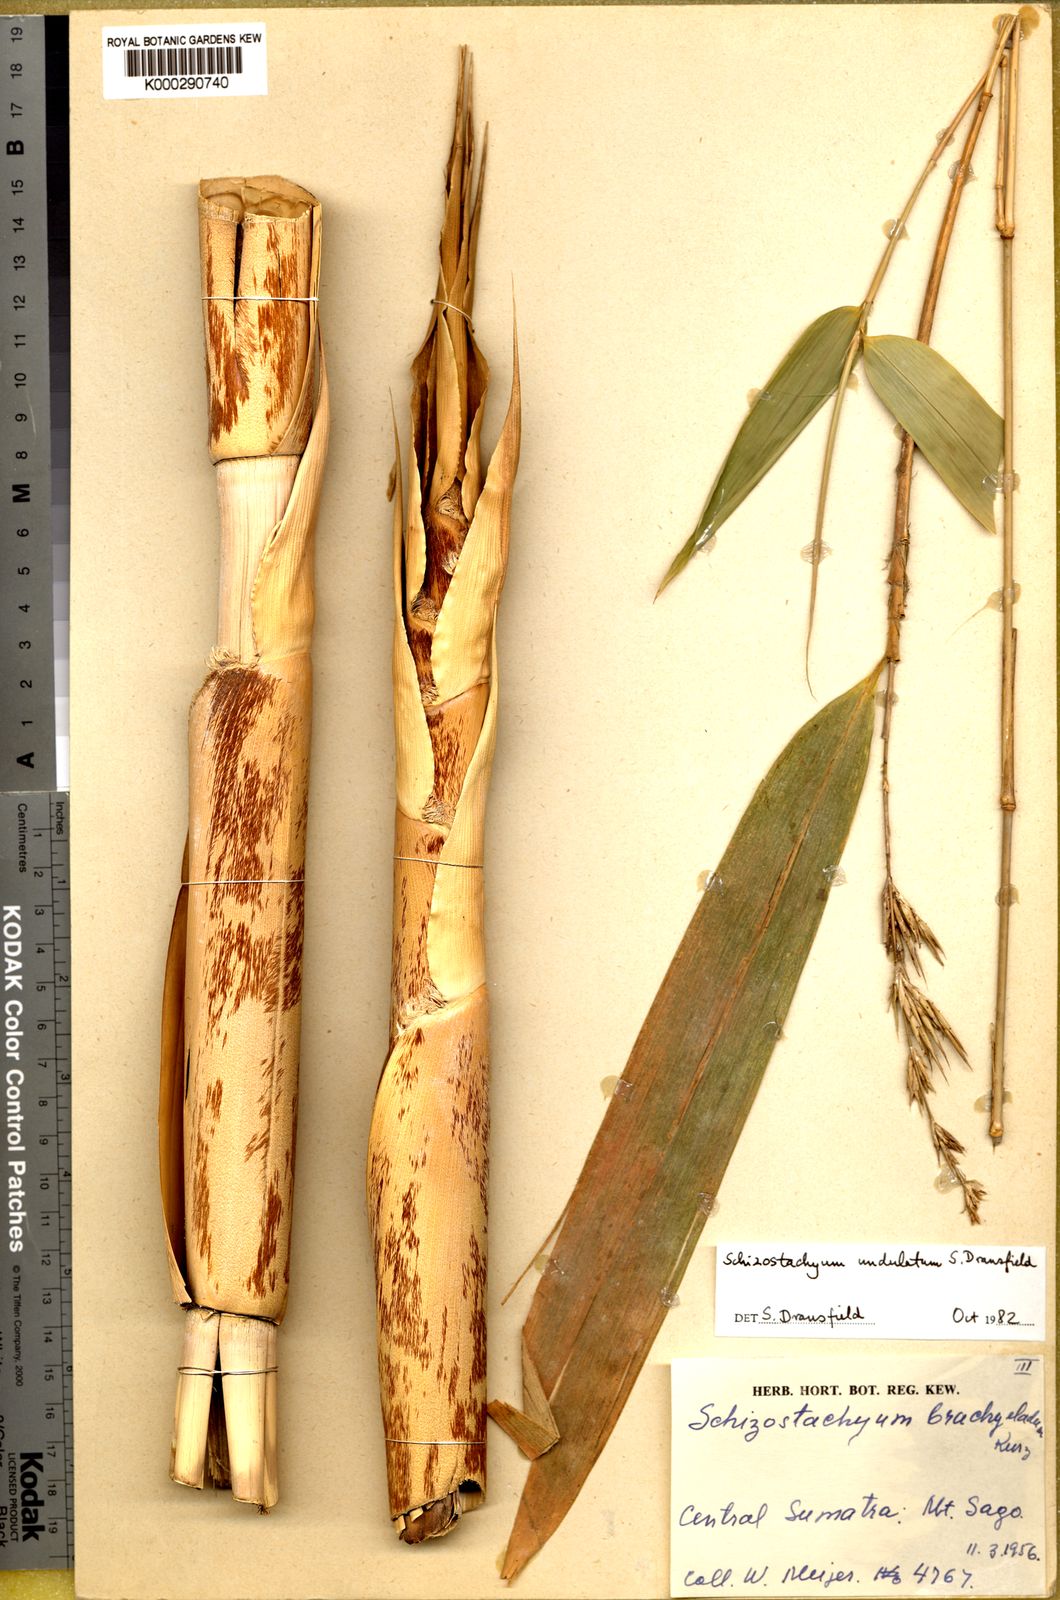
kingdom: Plantae
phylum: Tracheophyta
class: Liliopsida
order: Poales
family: Poaceae
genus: Schizostachyum
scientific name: Schizostachyum undulatum
